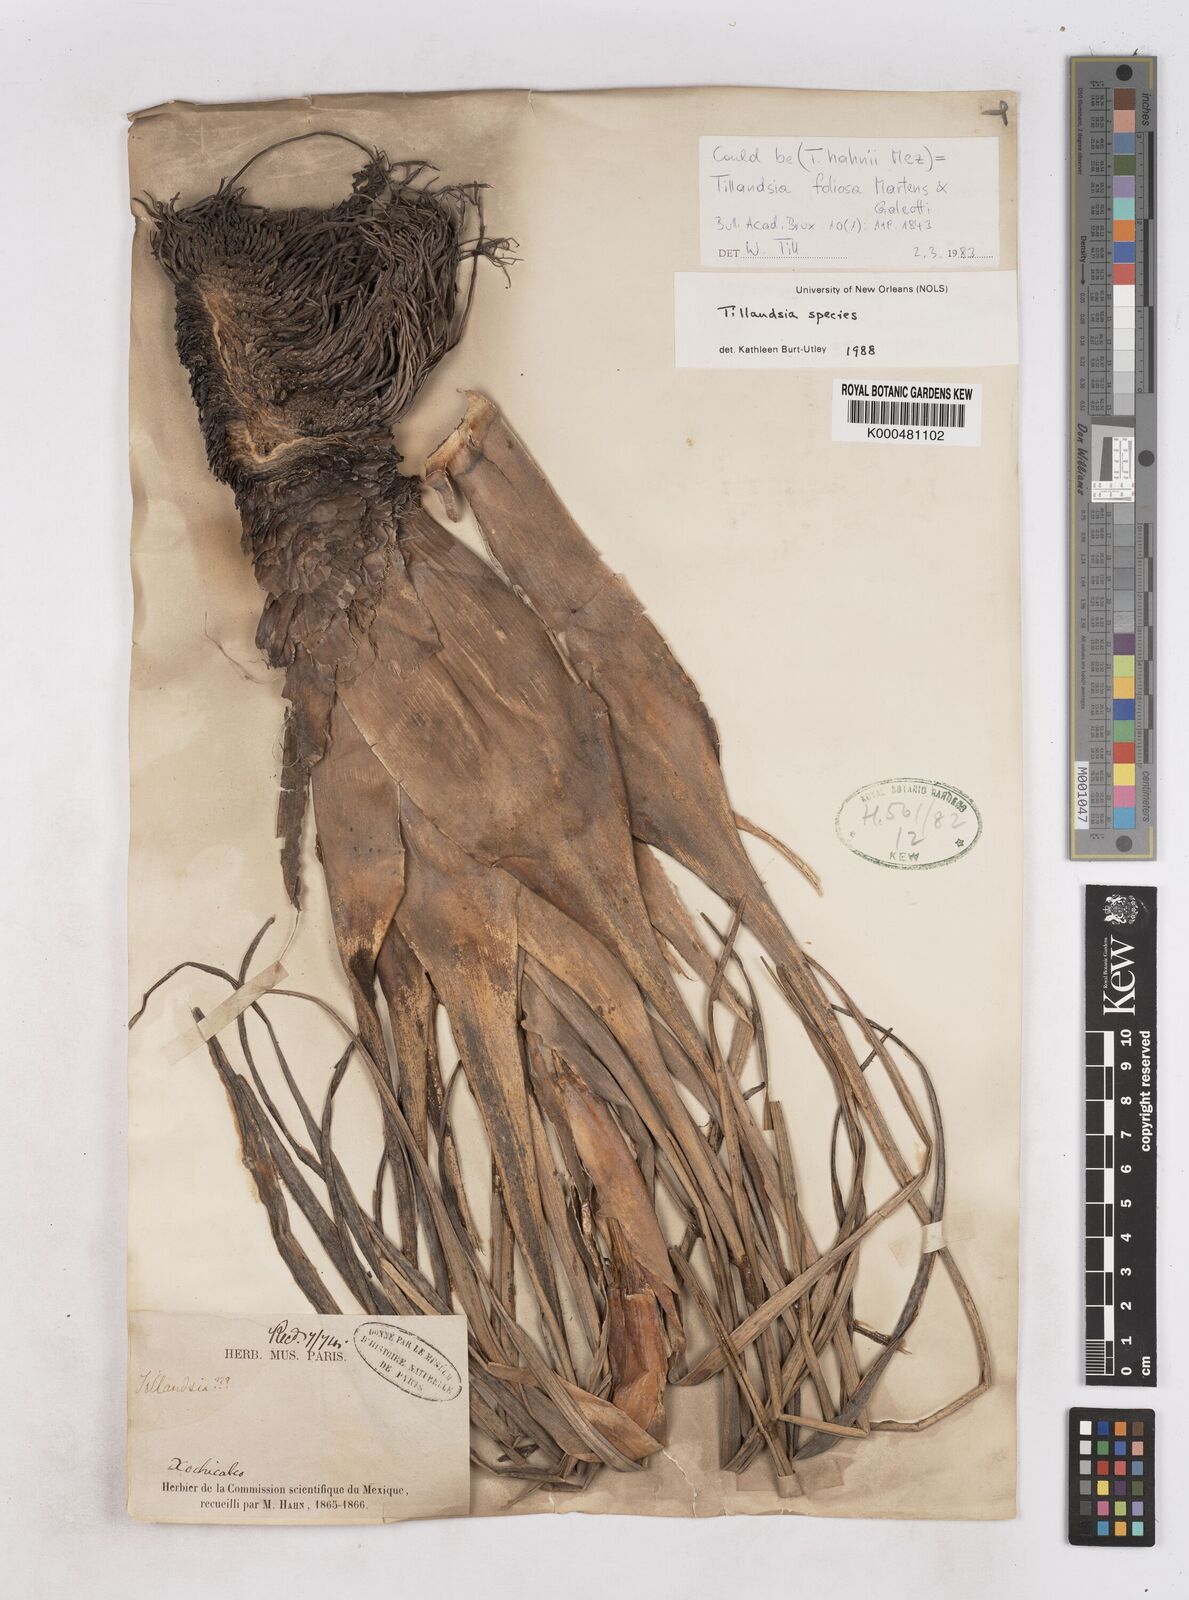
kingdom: Plantae
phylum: Tracheophyta
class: Liliopsida
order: Poales
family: Bromeliaceae
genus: Tillandsia
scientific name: Tillandsia foliosa
